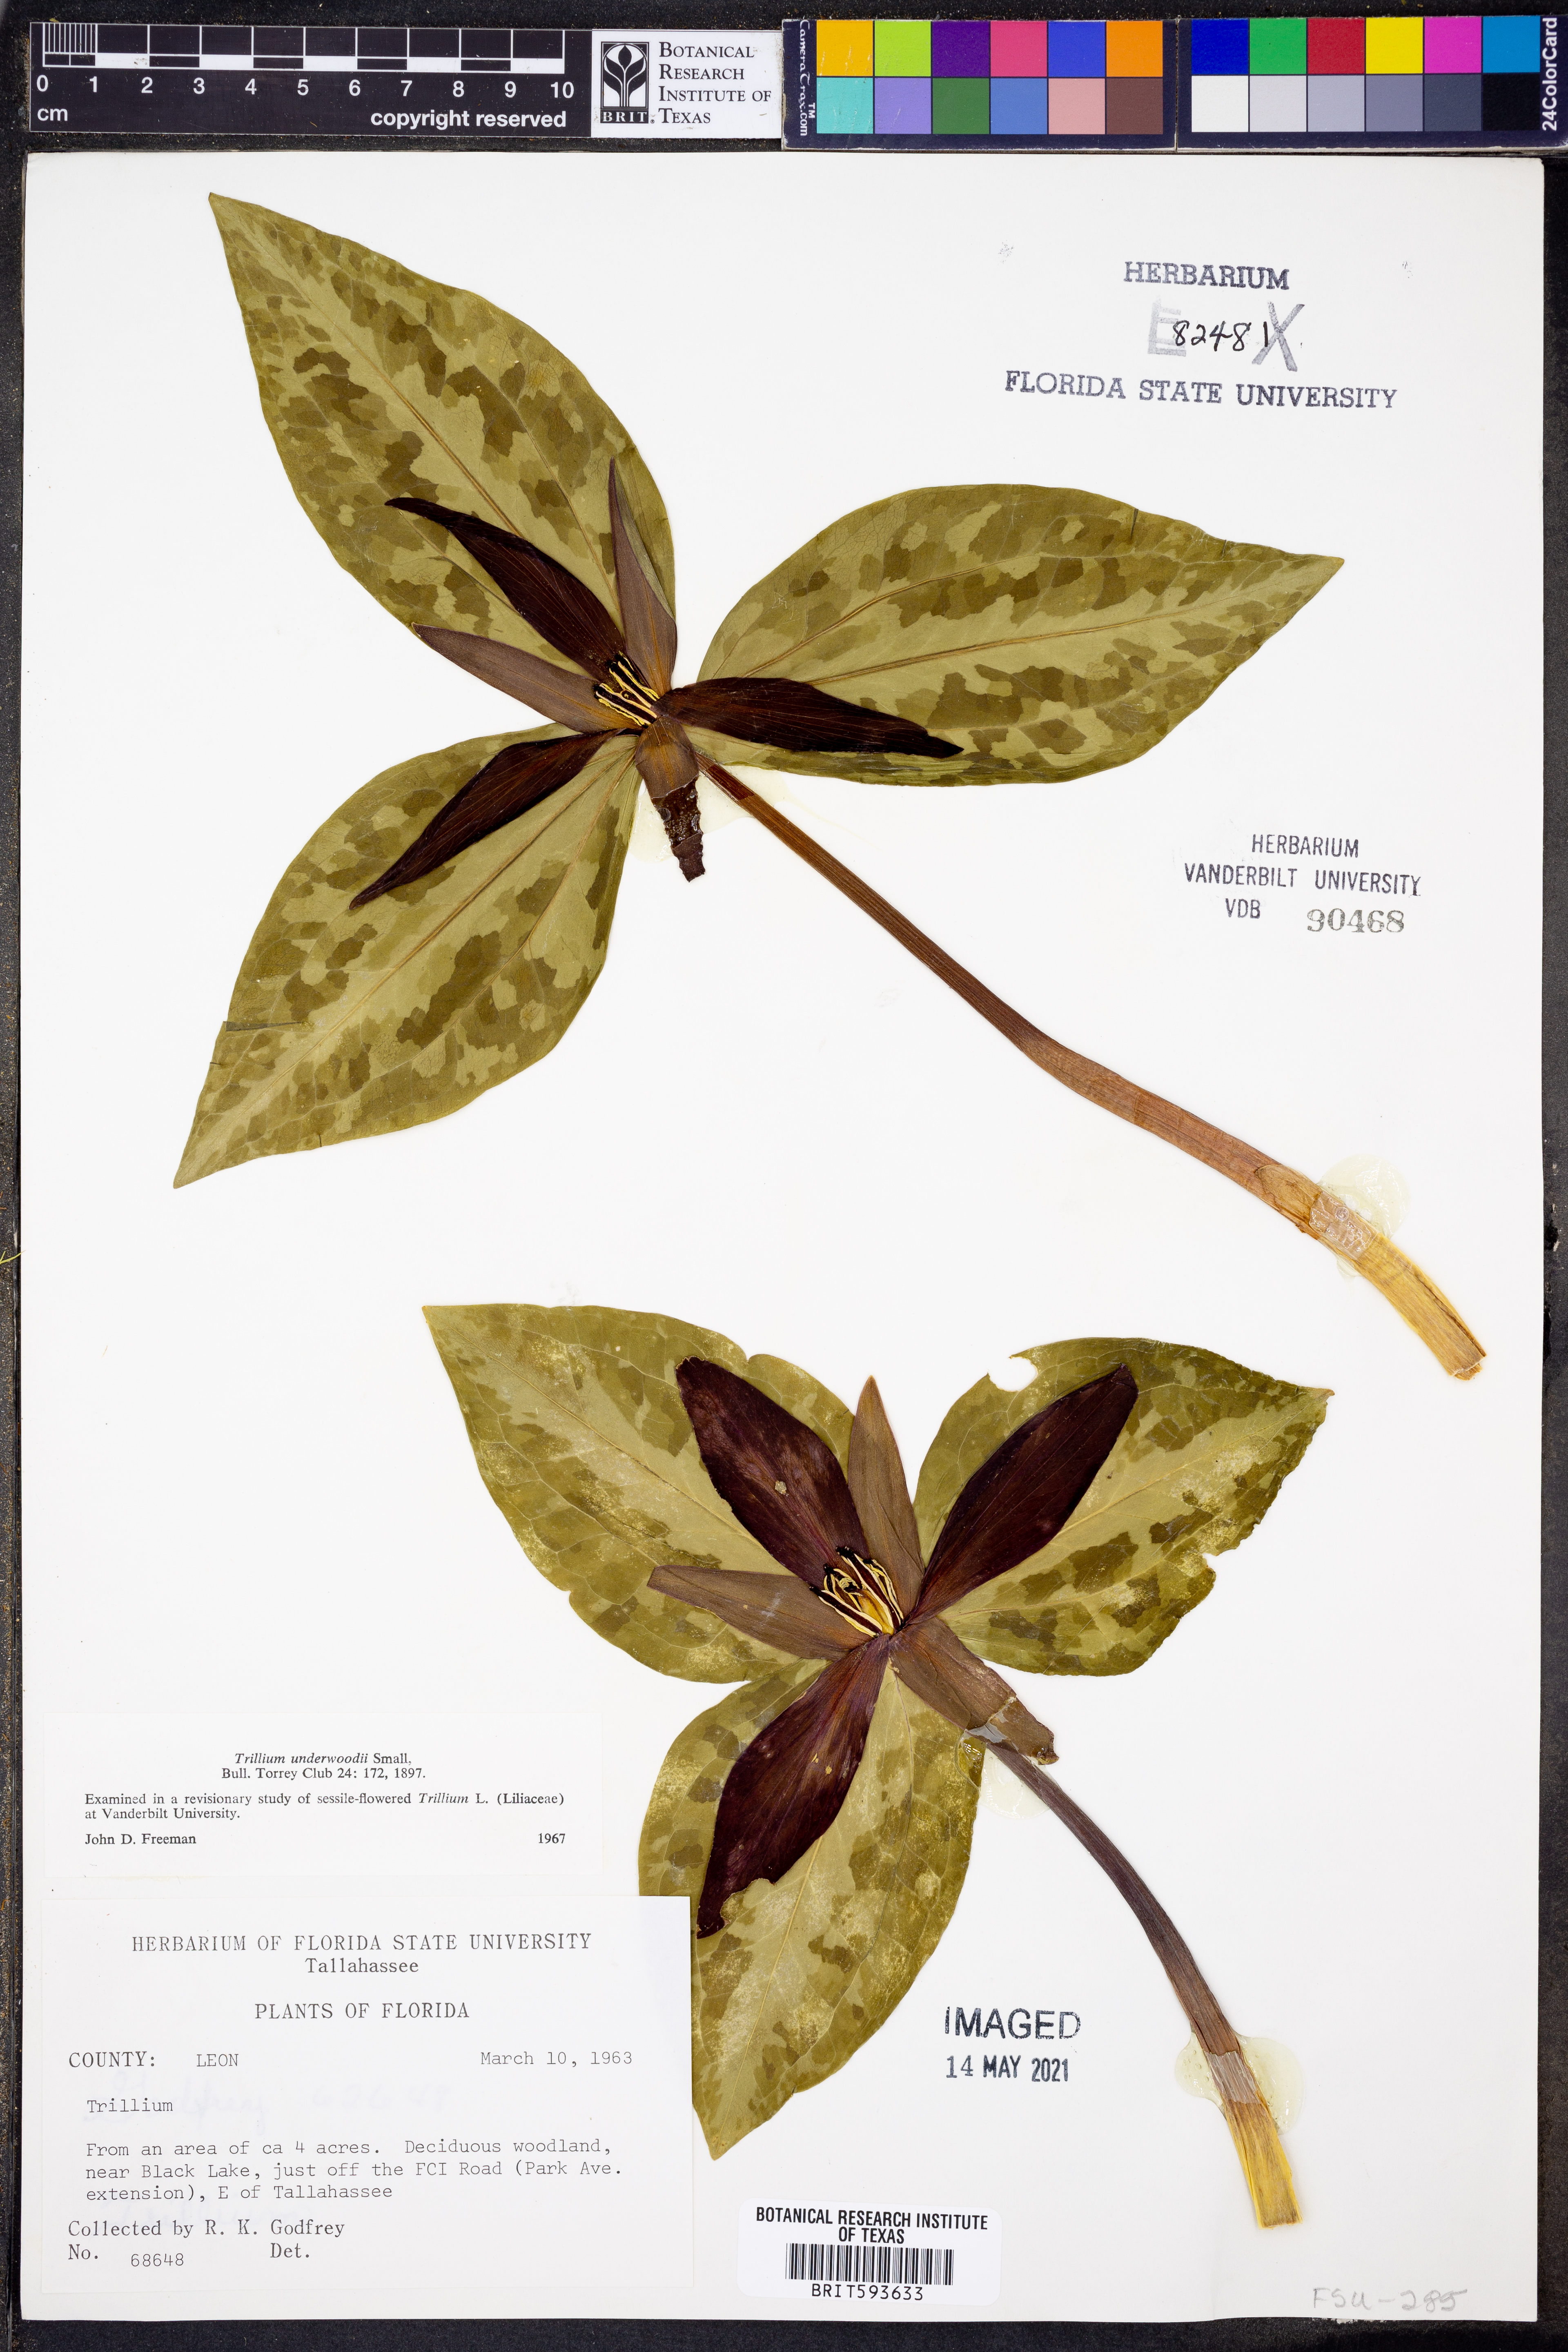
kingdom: Plantae
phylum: Tracheophyta
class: Liliopsida
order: Liliales
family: Melanthiaceae
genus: Trillium
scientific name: Trillium underwoodii
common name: Longbract wakerobin
